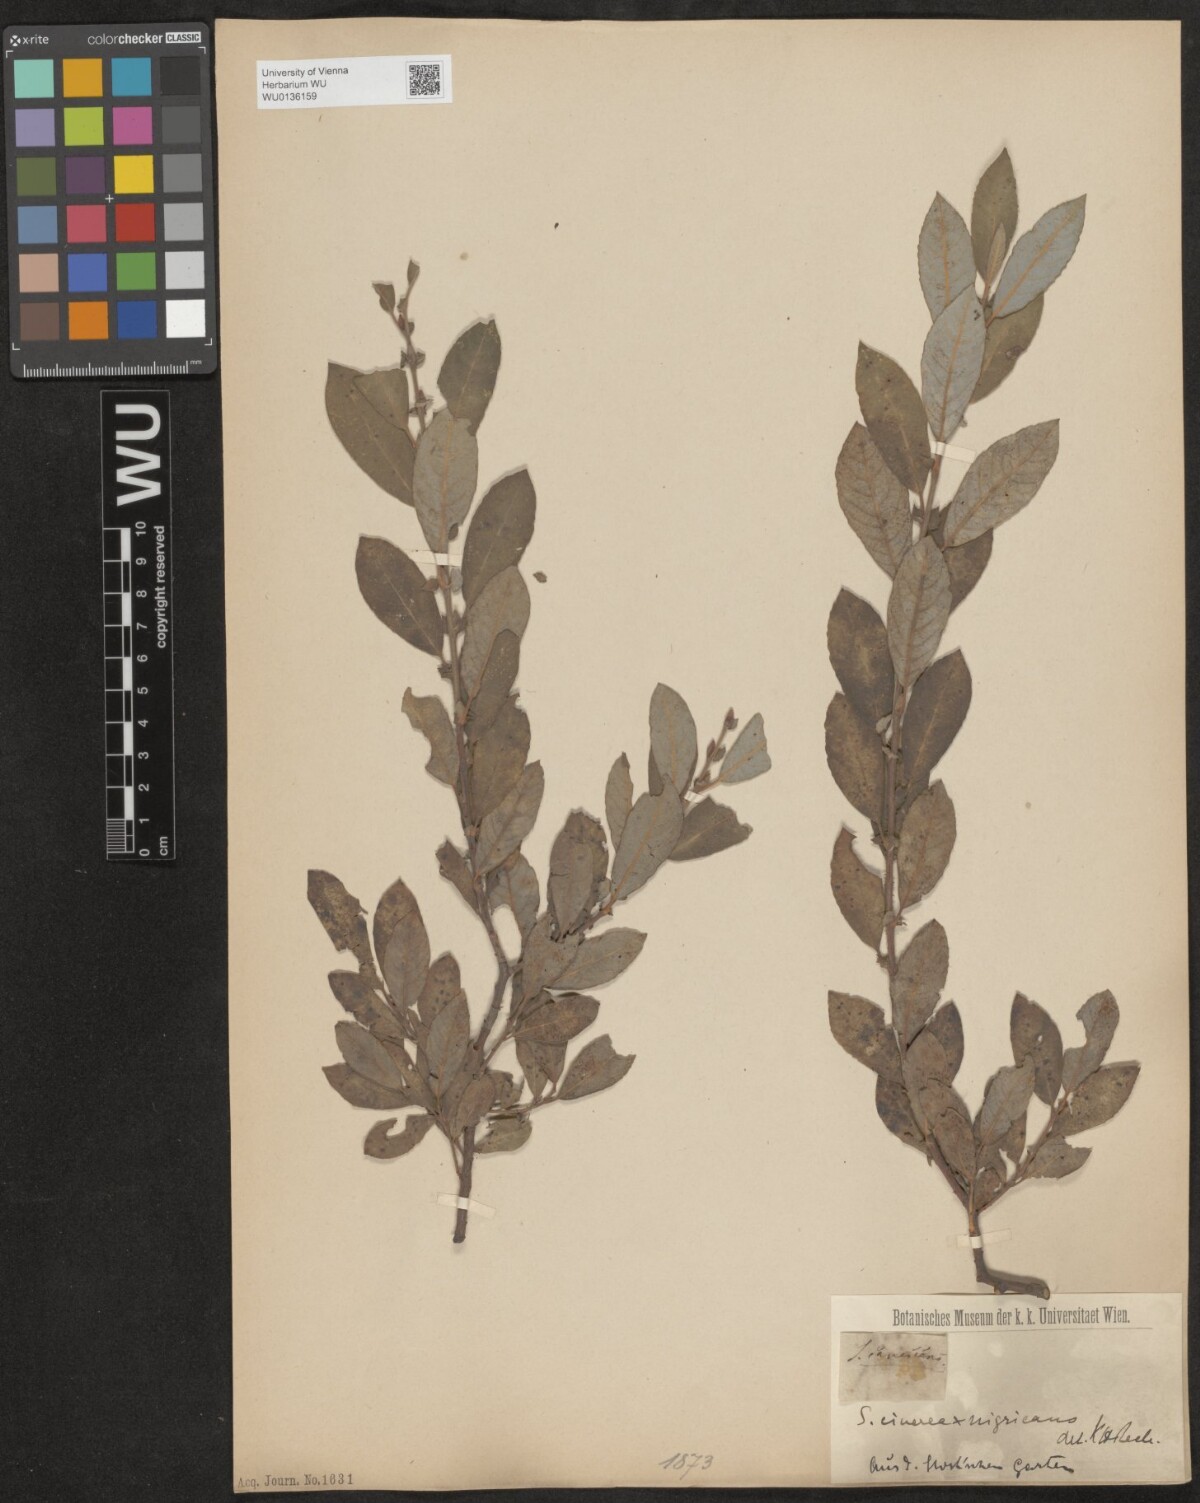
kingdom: Plantae
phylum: Tracheophyta
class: Magnoliopsida
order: Malpighiales
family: Salicaceae
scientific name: Salicaceae
